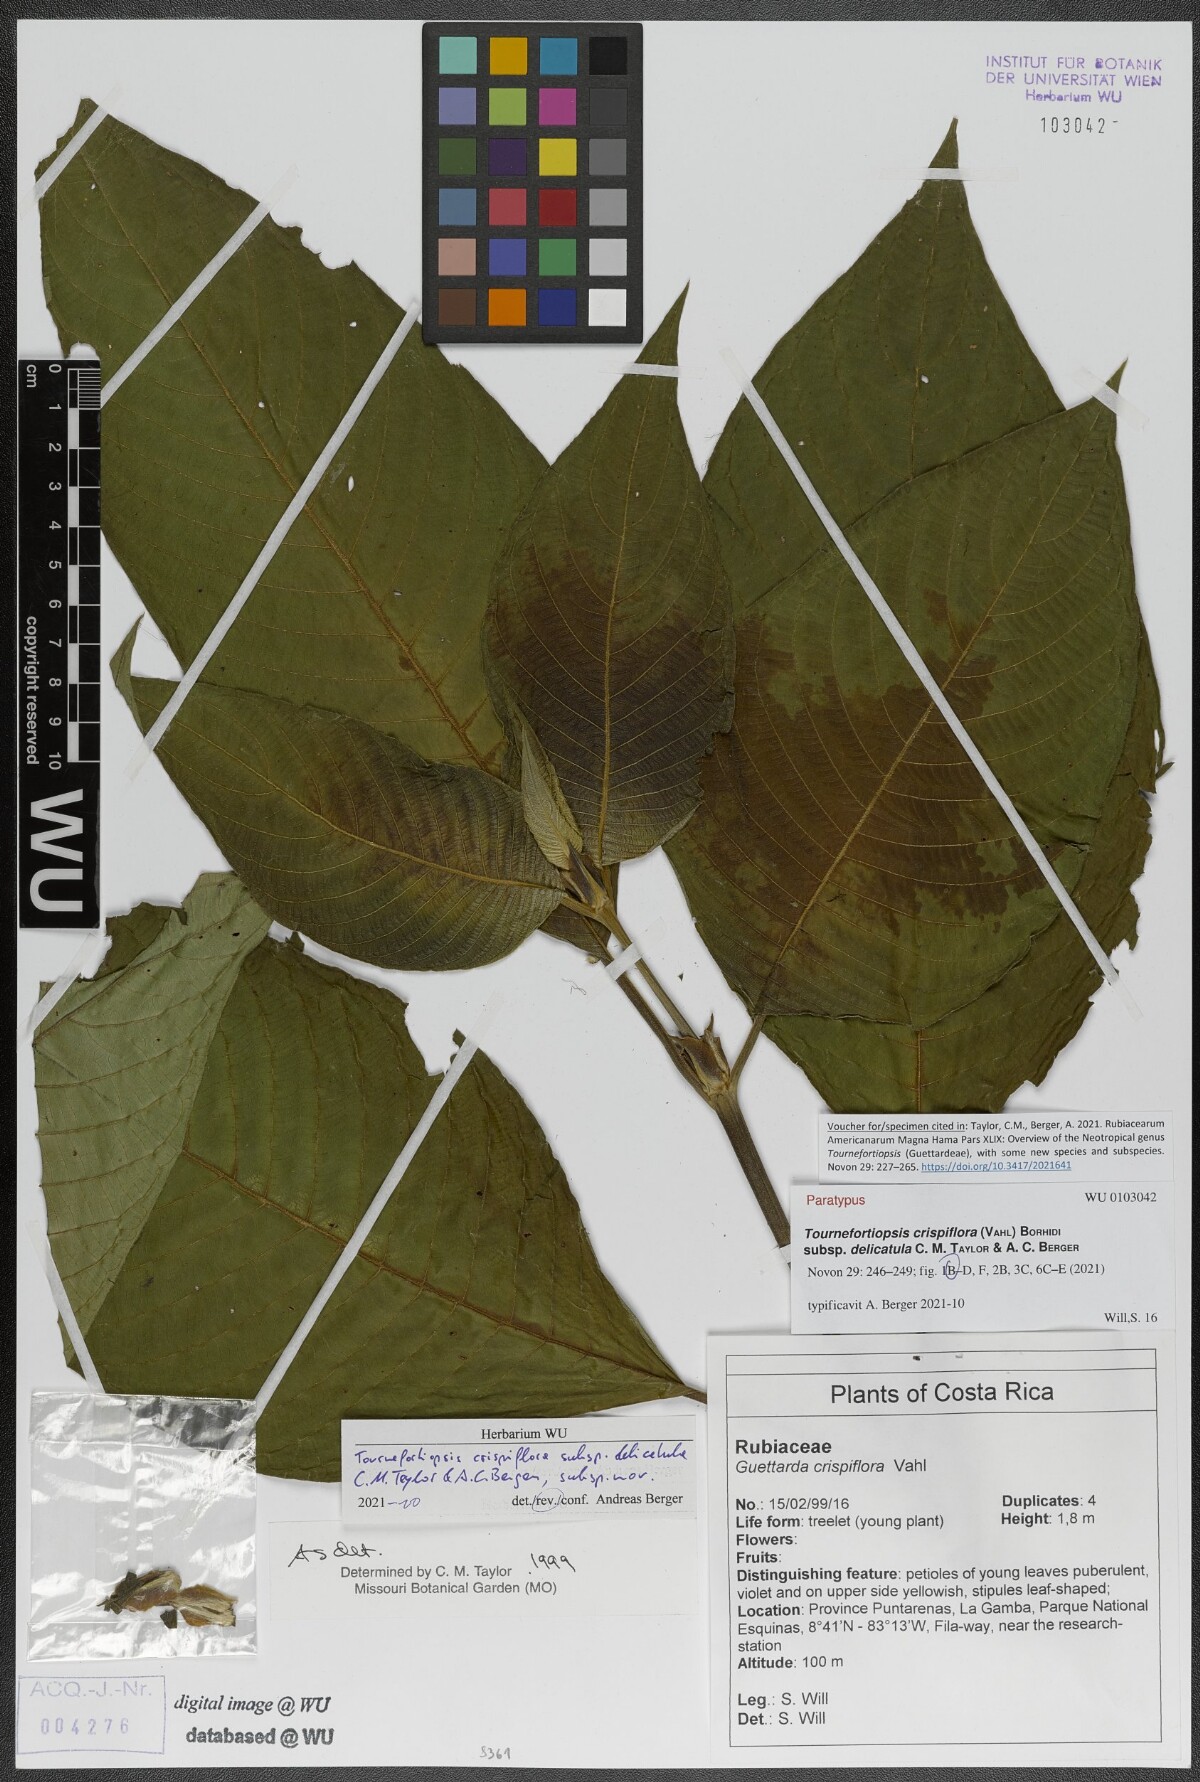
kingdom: Plantae
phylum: Tracheophyta
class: Magnoliopsida
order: Gentianales
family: Rubiaceae
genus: Tournefortiopsis
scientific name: Tournefortiopsis crispiflora
